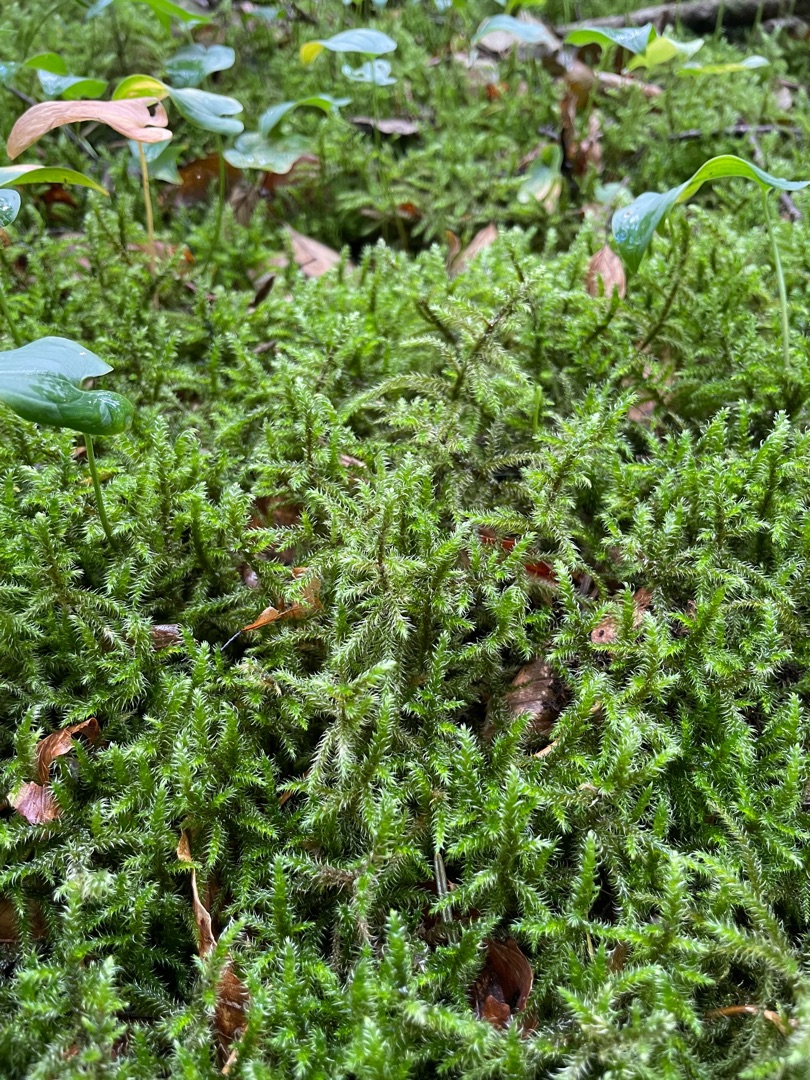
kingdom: Plantae
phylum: Bryophyta
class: Bryopsida
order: Hypnales
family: Hylocomiaceae
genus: Rhytidiadelphus
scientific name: Rhytidiadelphus loreus
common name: Ulvefod-kransemos
